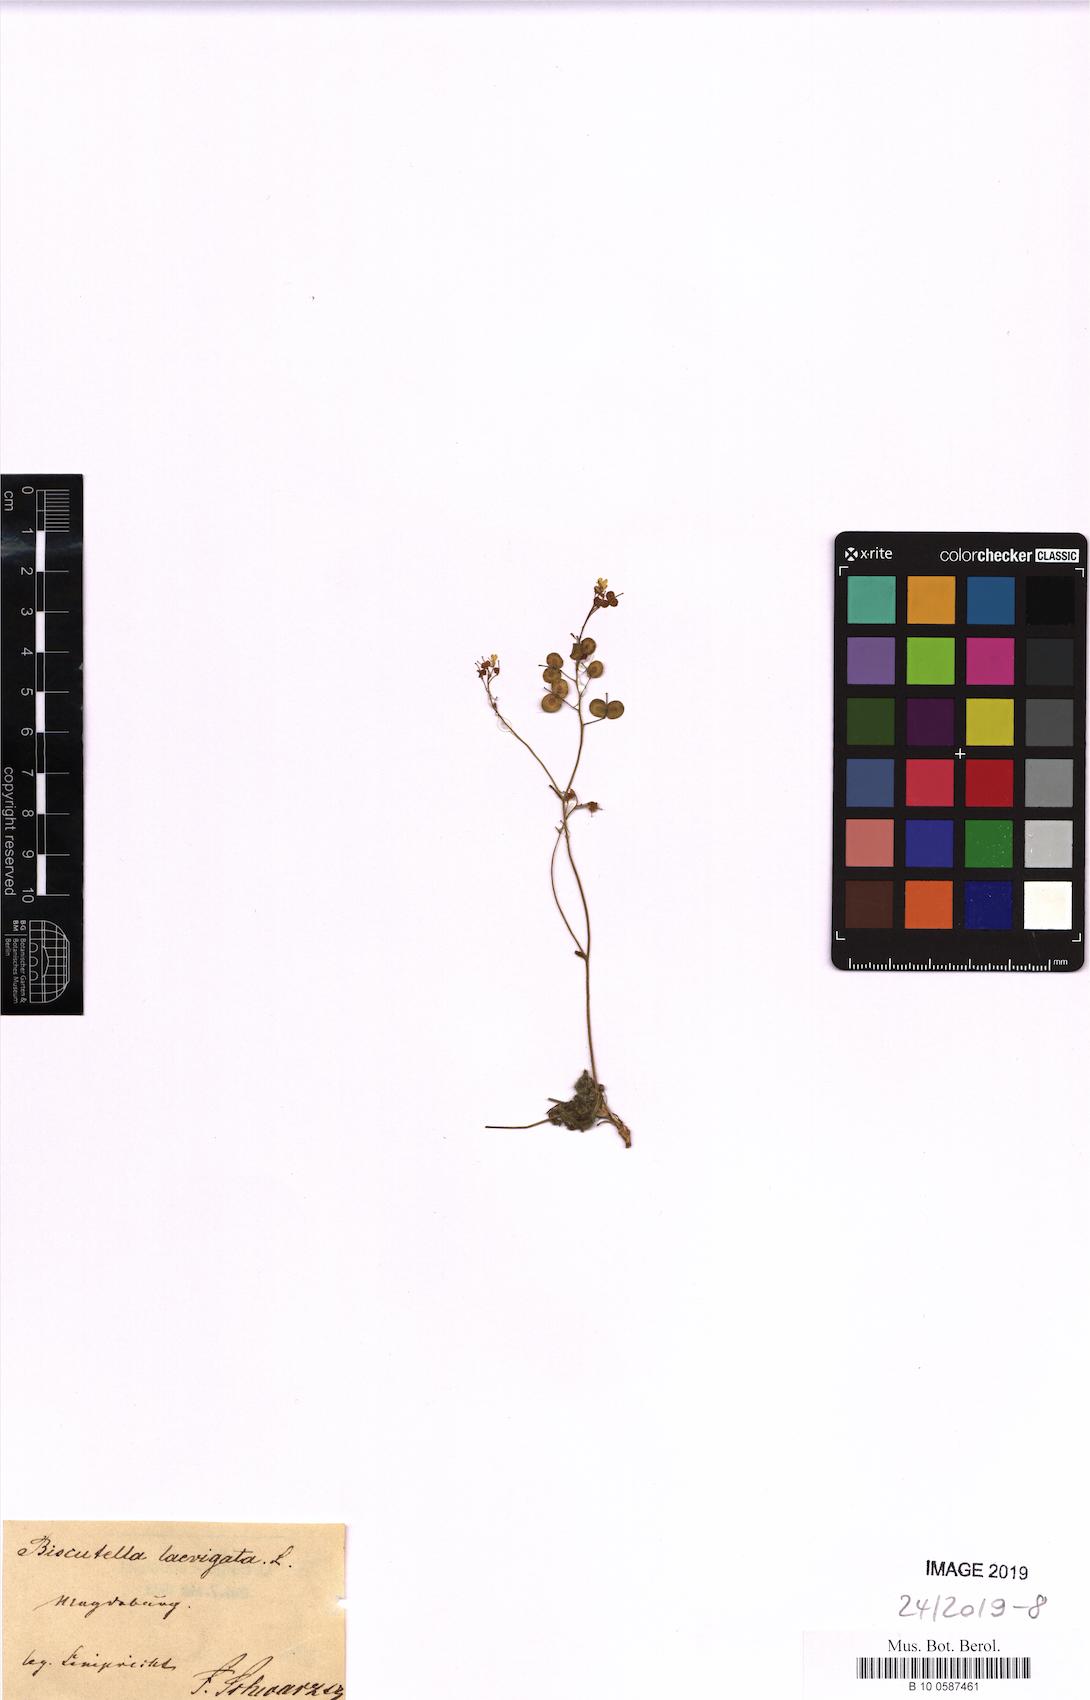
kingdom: Plantae
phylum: Tracheophyta
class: Magnoliopsida
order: Brassicales
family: Brassicaceae
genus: Biscutella
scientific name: Biscutella laevigata
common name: Buckler mustard
